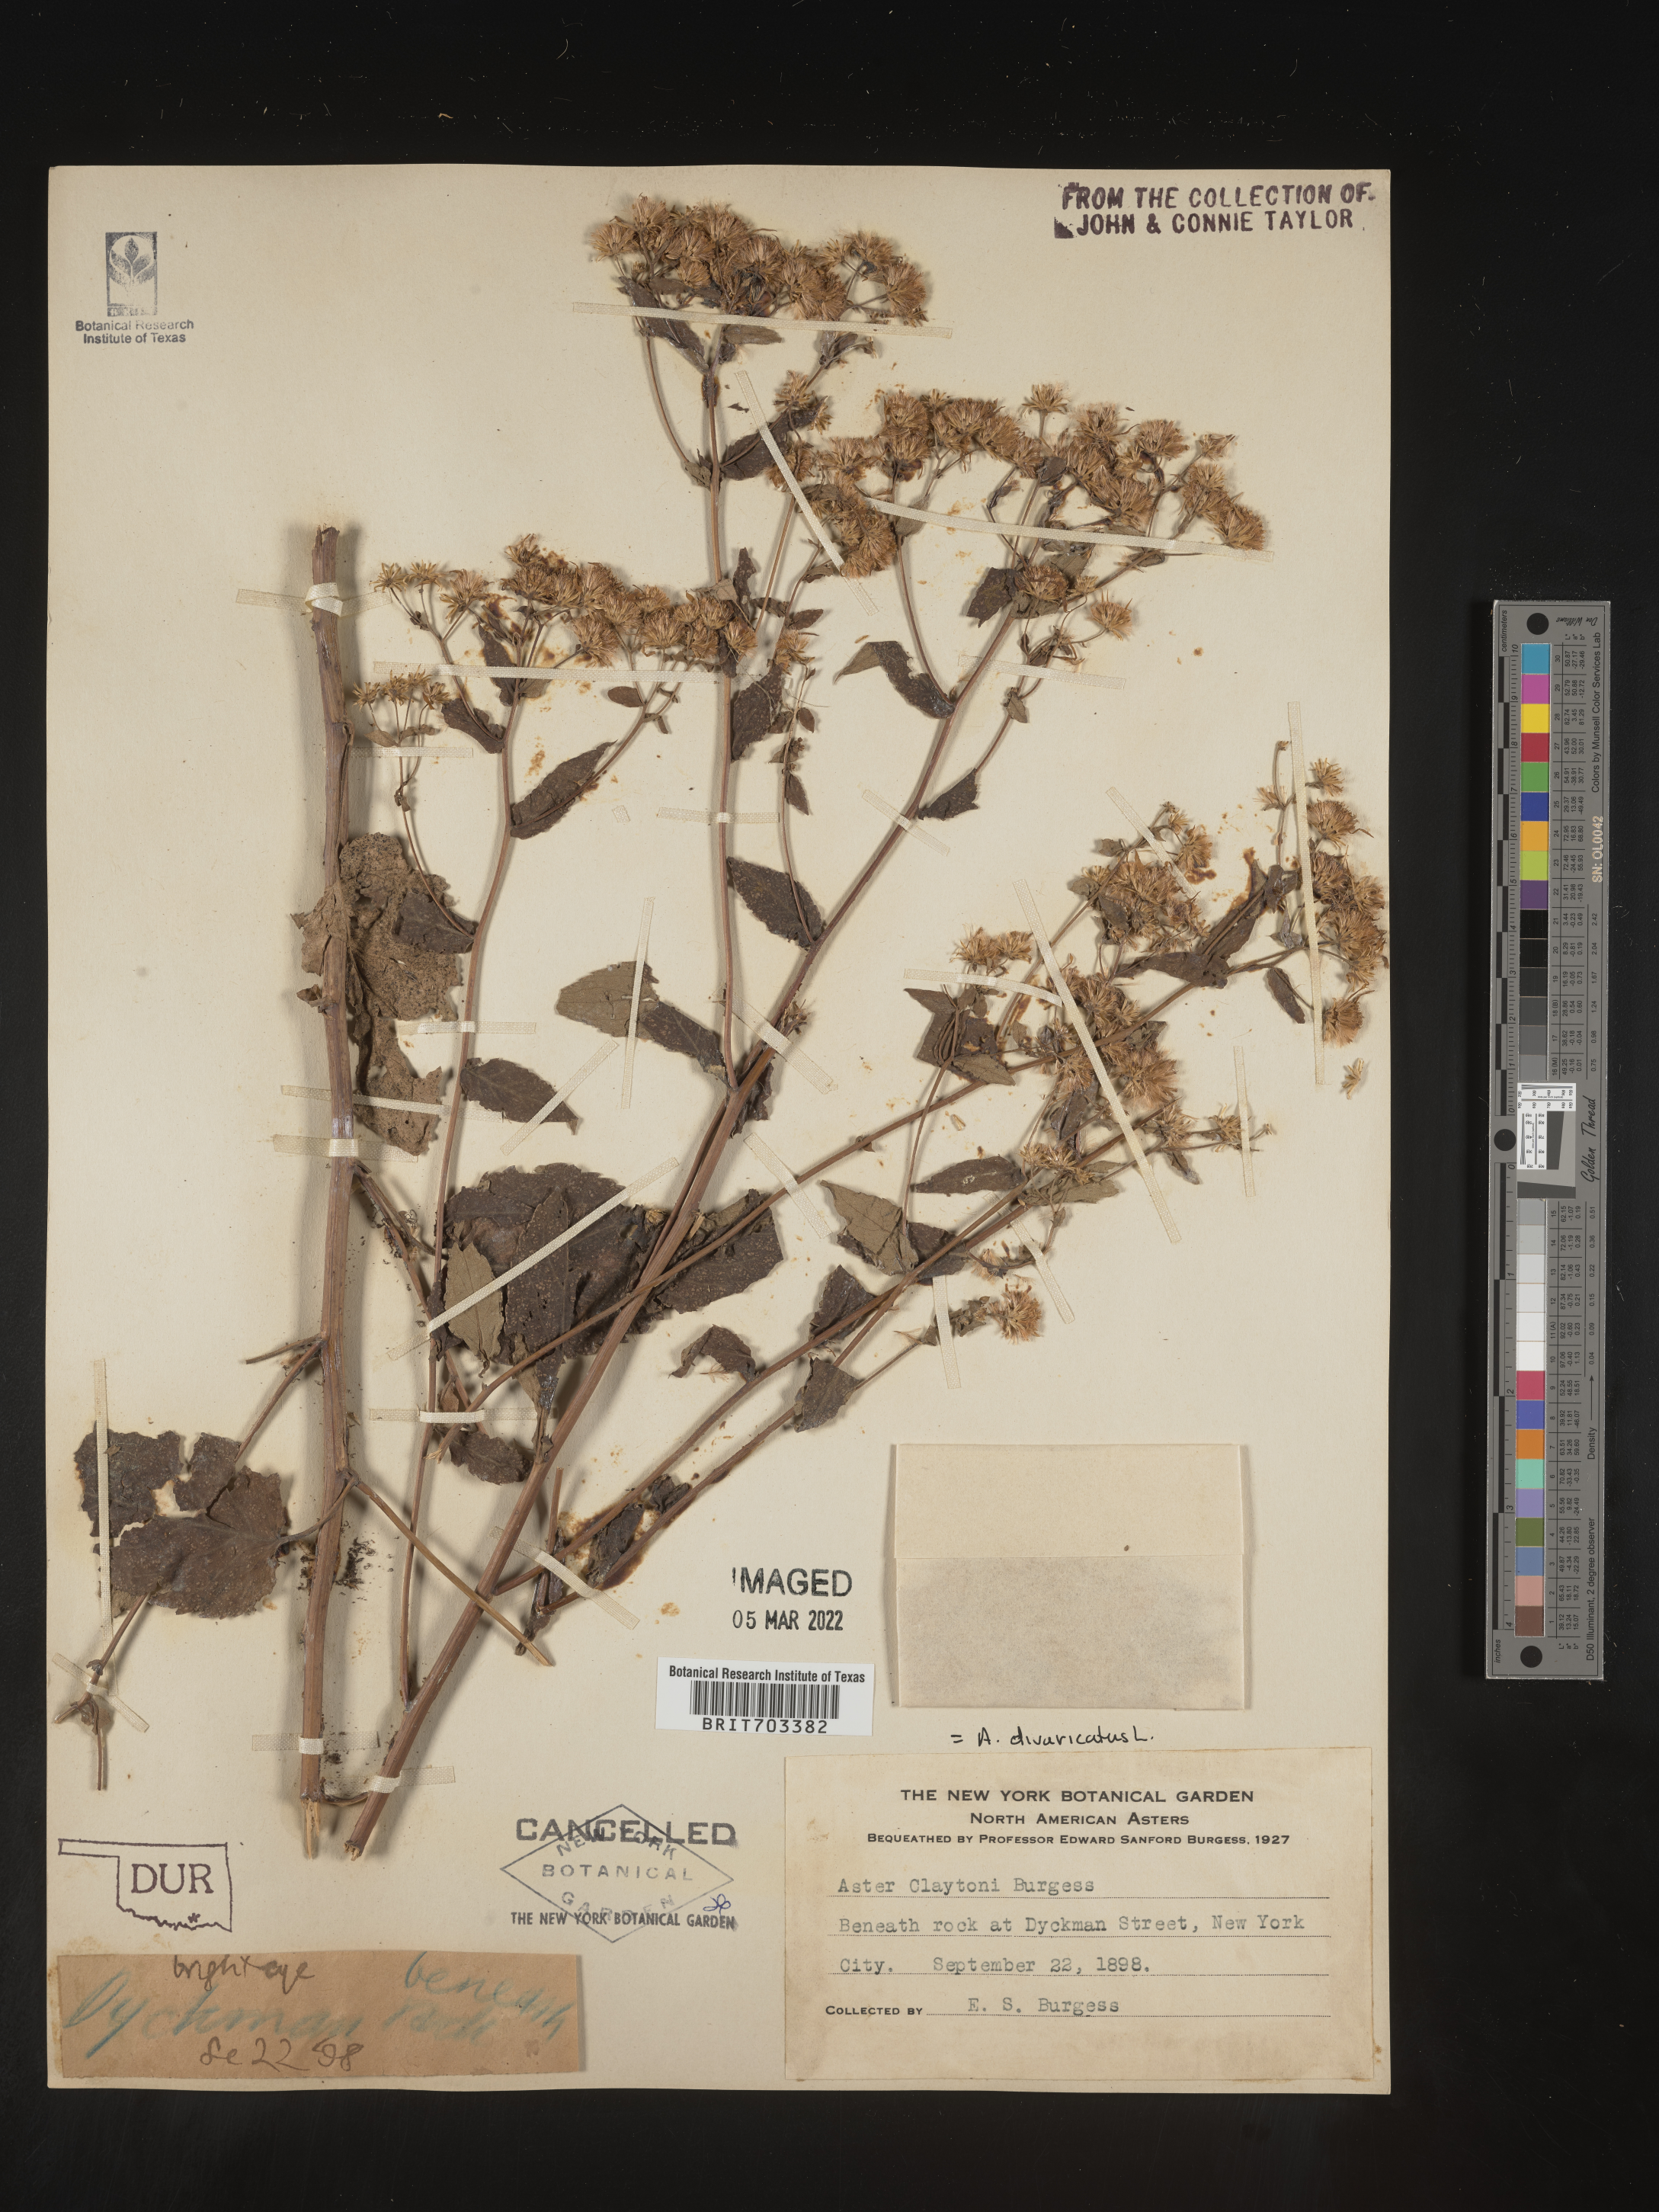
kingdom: Plantae
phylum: Tracheophyta
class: Magnoliopsida
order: Asterales
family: Asteraceae
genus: Eurybia
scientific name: Eurybia divaricata
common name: White wood aster
